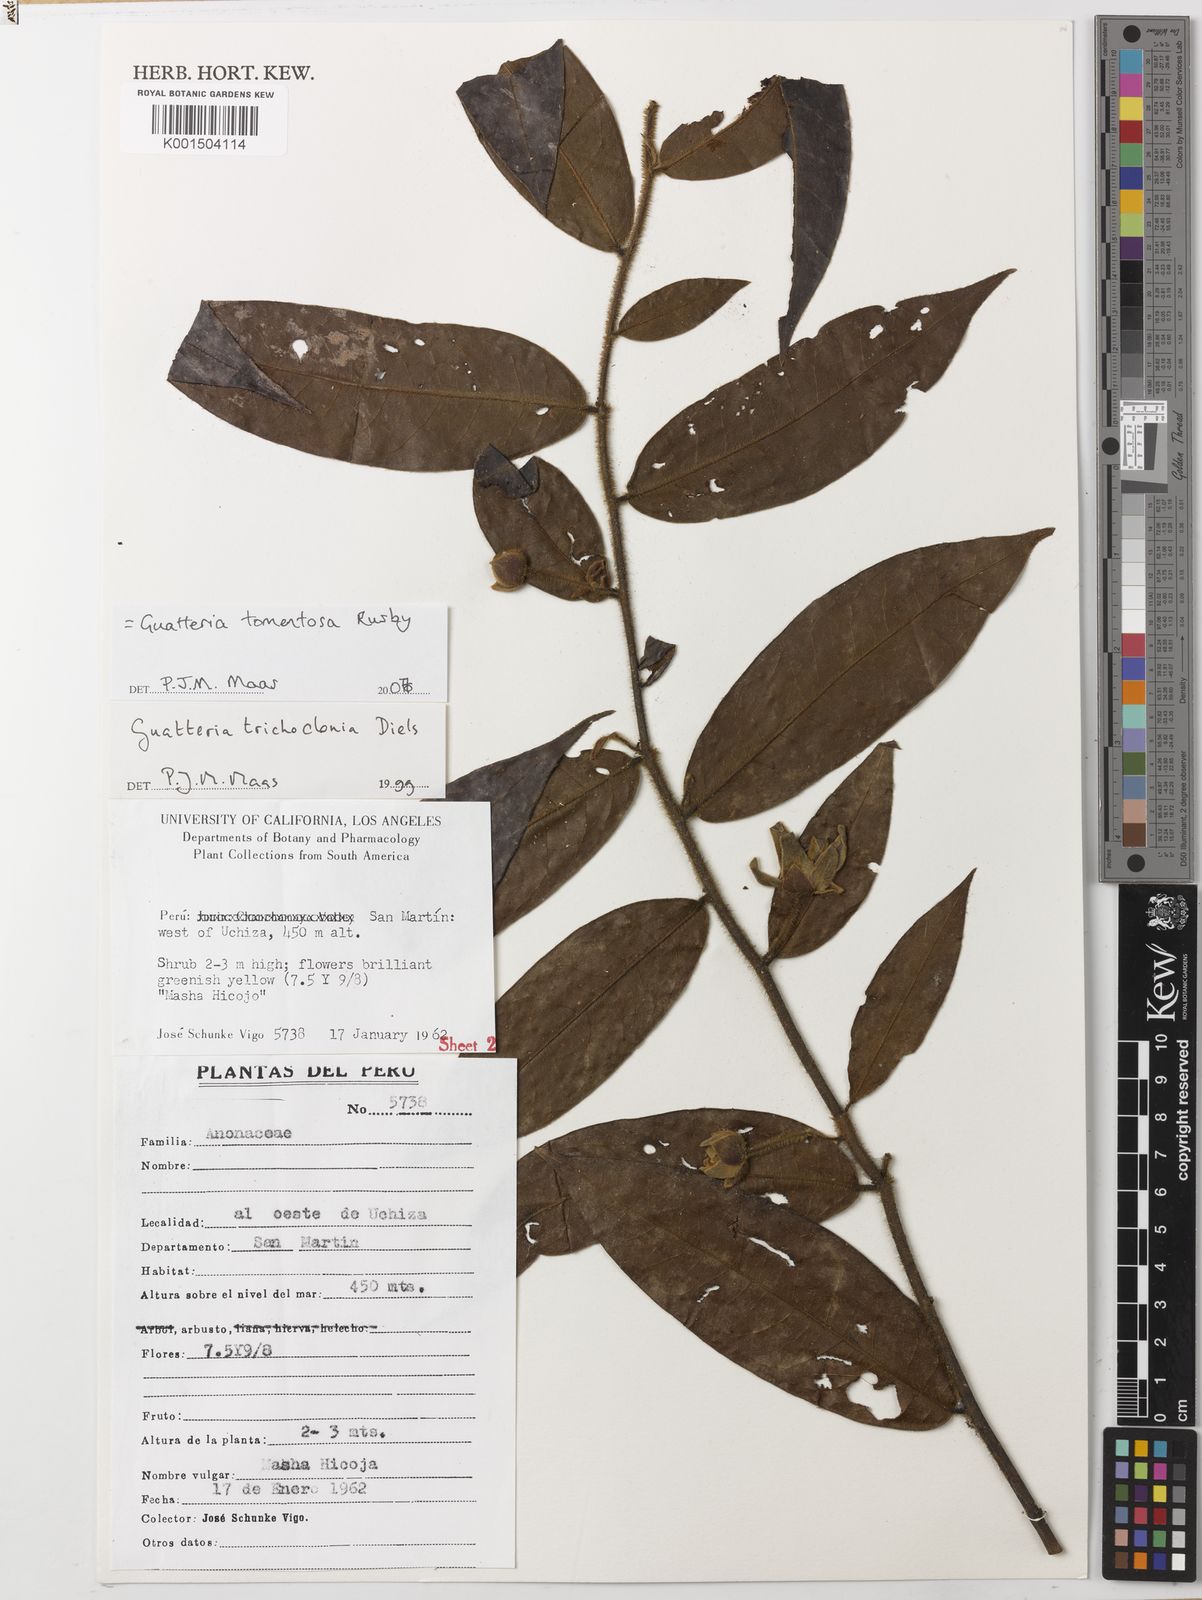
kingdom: Plantae
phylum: Tracheophyta
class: Magnoliopsida
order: Magnoliales
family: Annonaceae
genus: Guatteria
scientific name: Guatteria tomentosa
